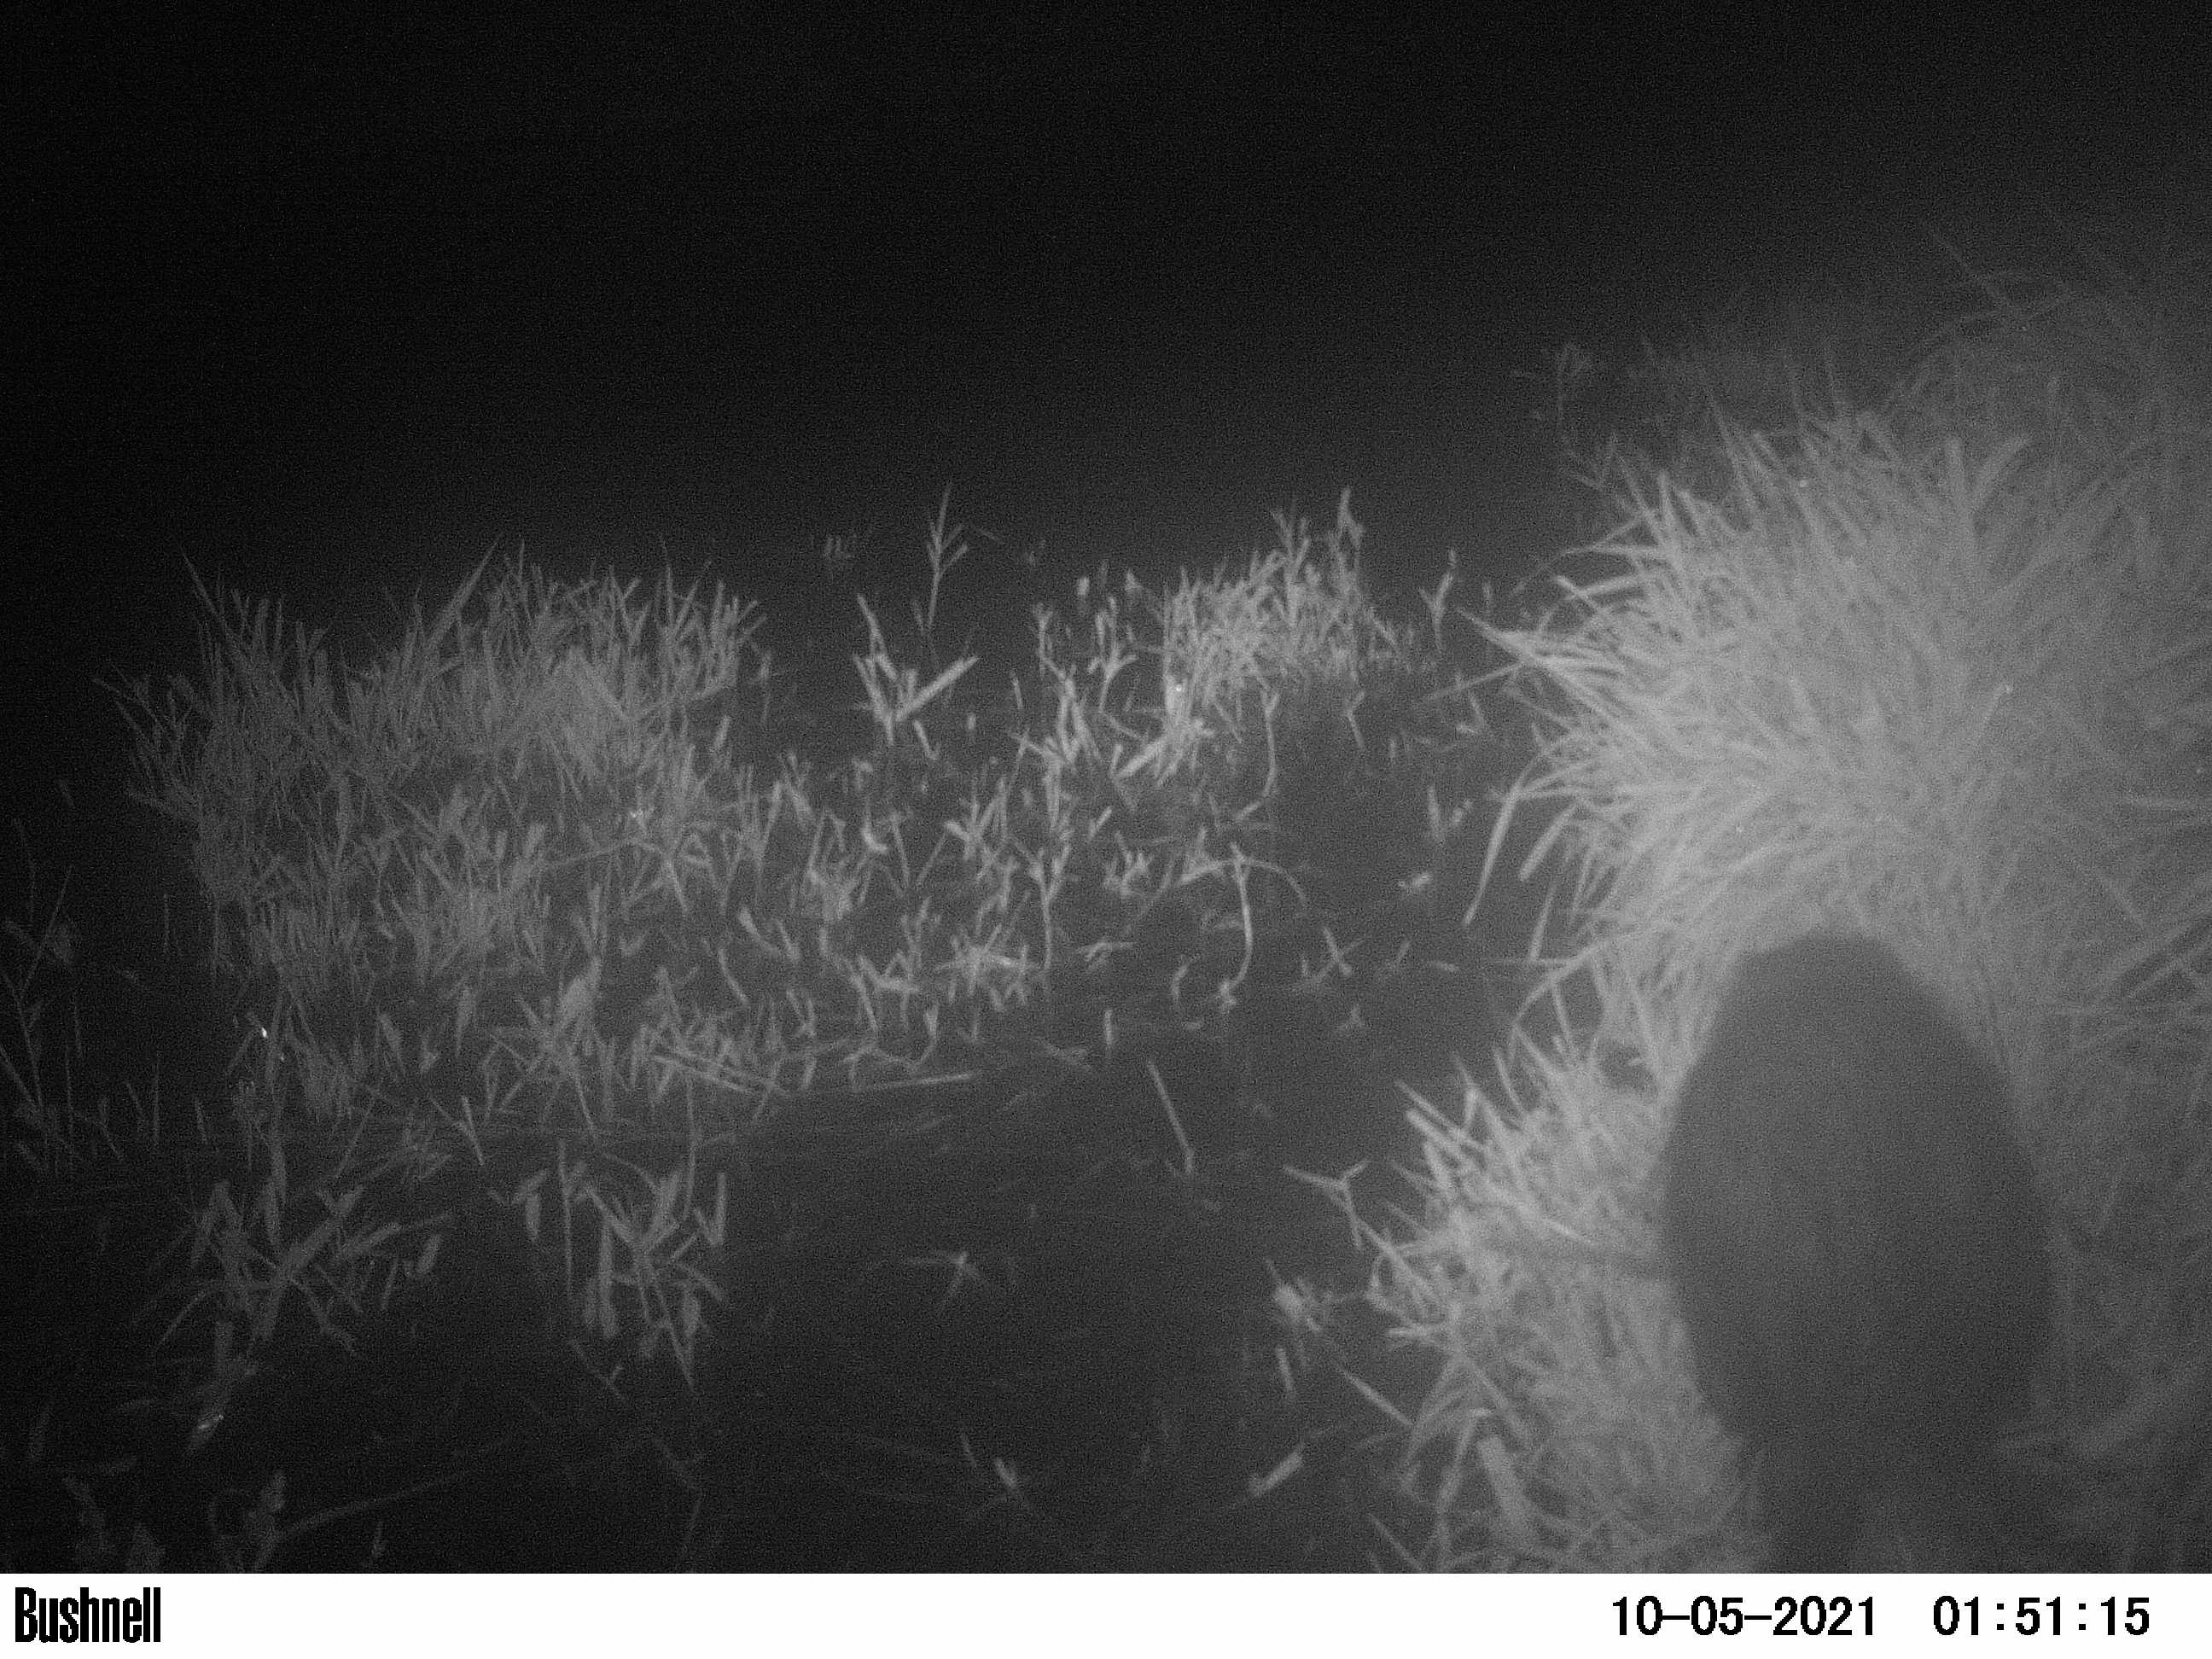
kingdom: Animalia
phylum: Chordata
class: Mammalia
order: Rodentia
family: Myocastoridae
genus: Myocastor
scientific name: Myocastor coypus
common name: Coypu
